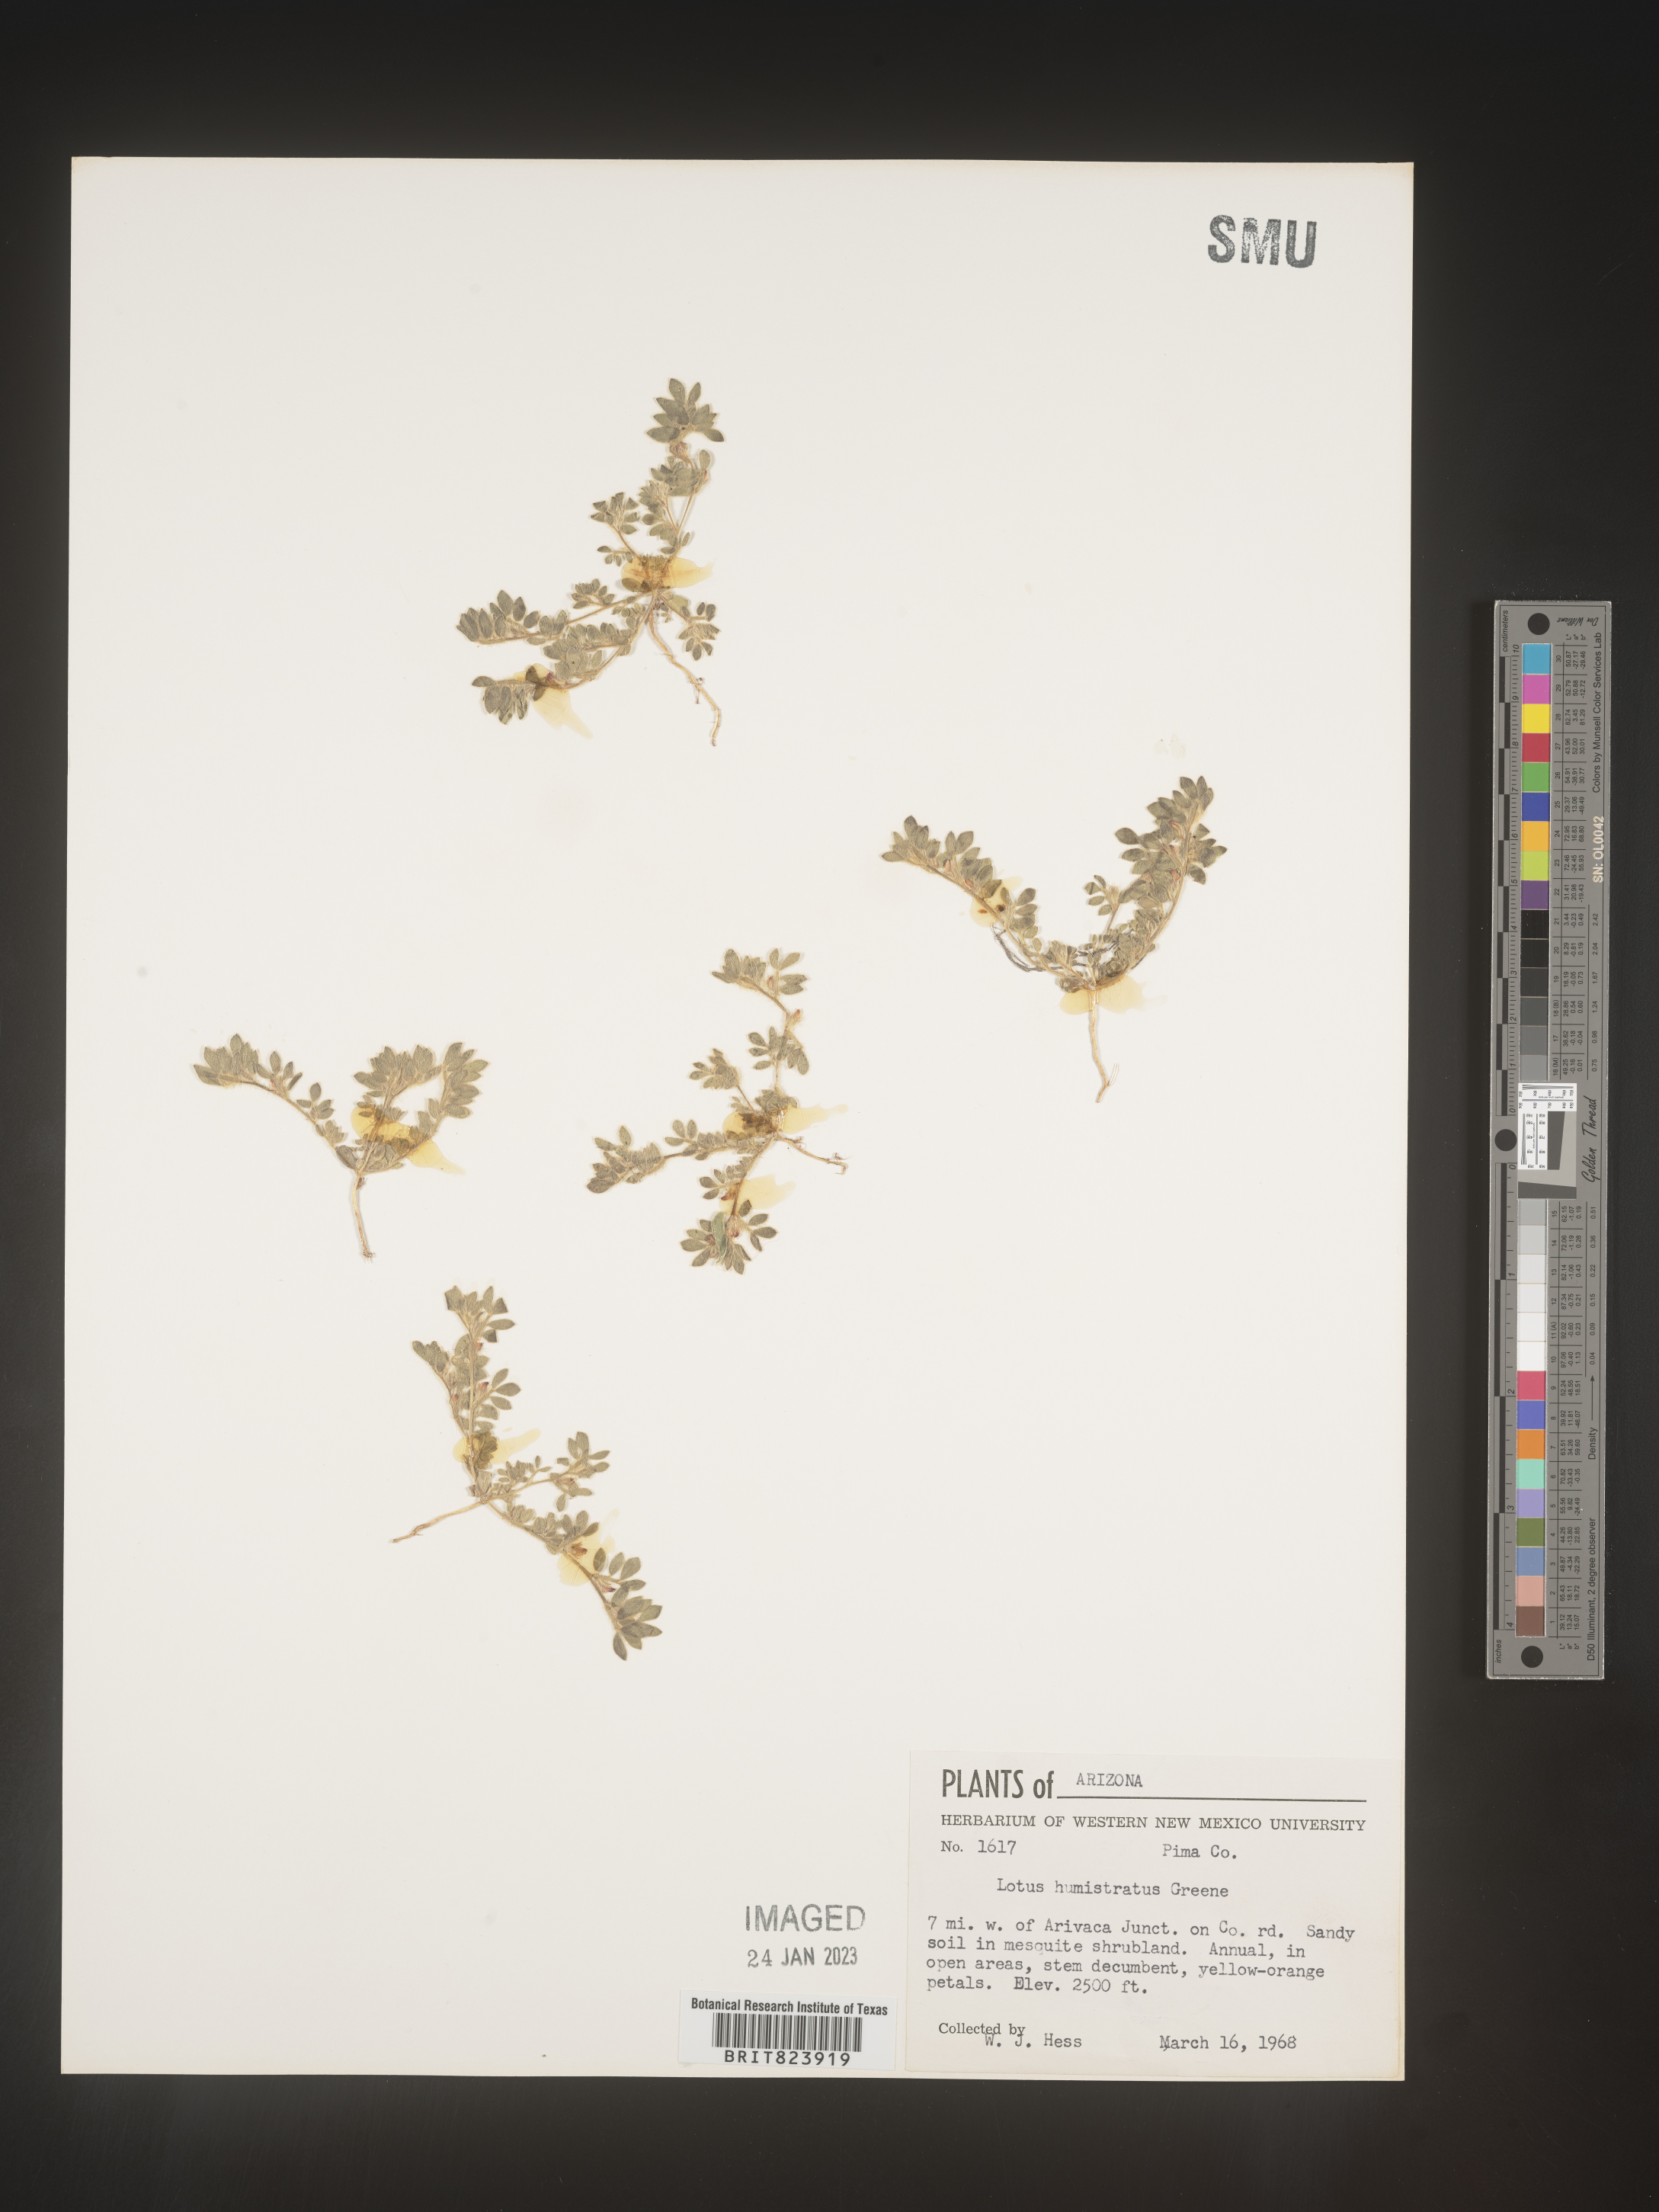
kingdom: Plantae
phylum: Tracheophyta
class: Magnoliopsida
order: Fabales
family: Fabaceae
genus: Acmispon
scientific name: Acmispon brachycarpus
